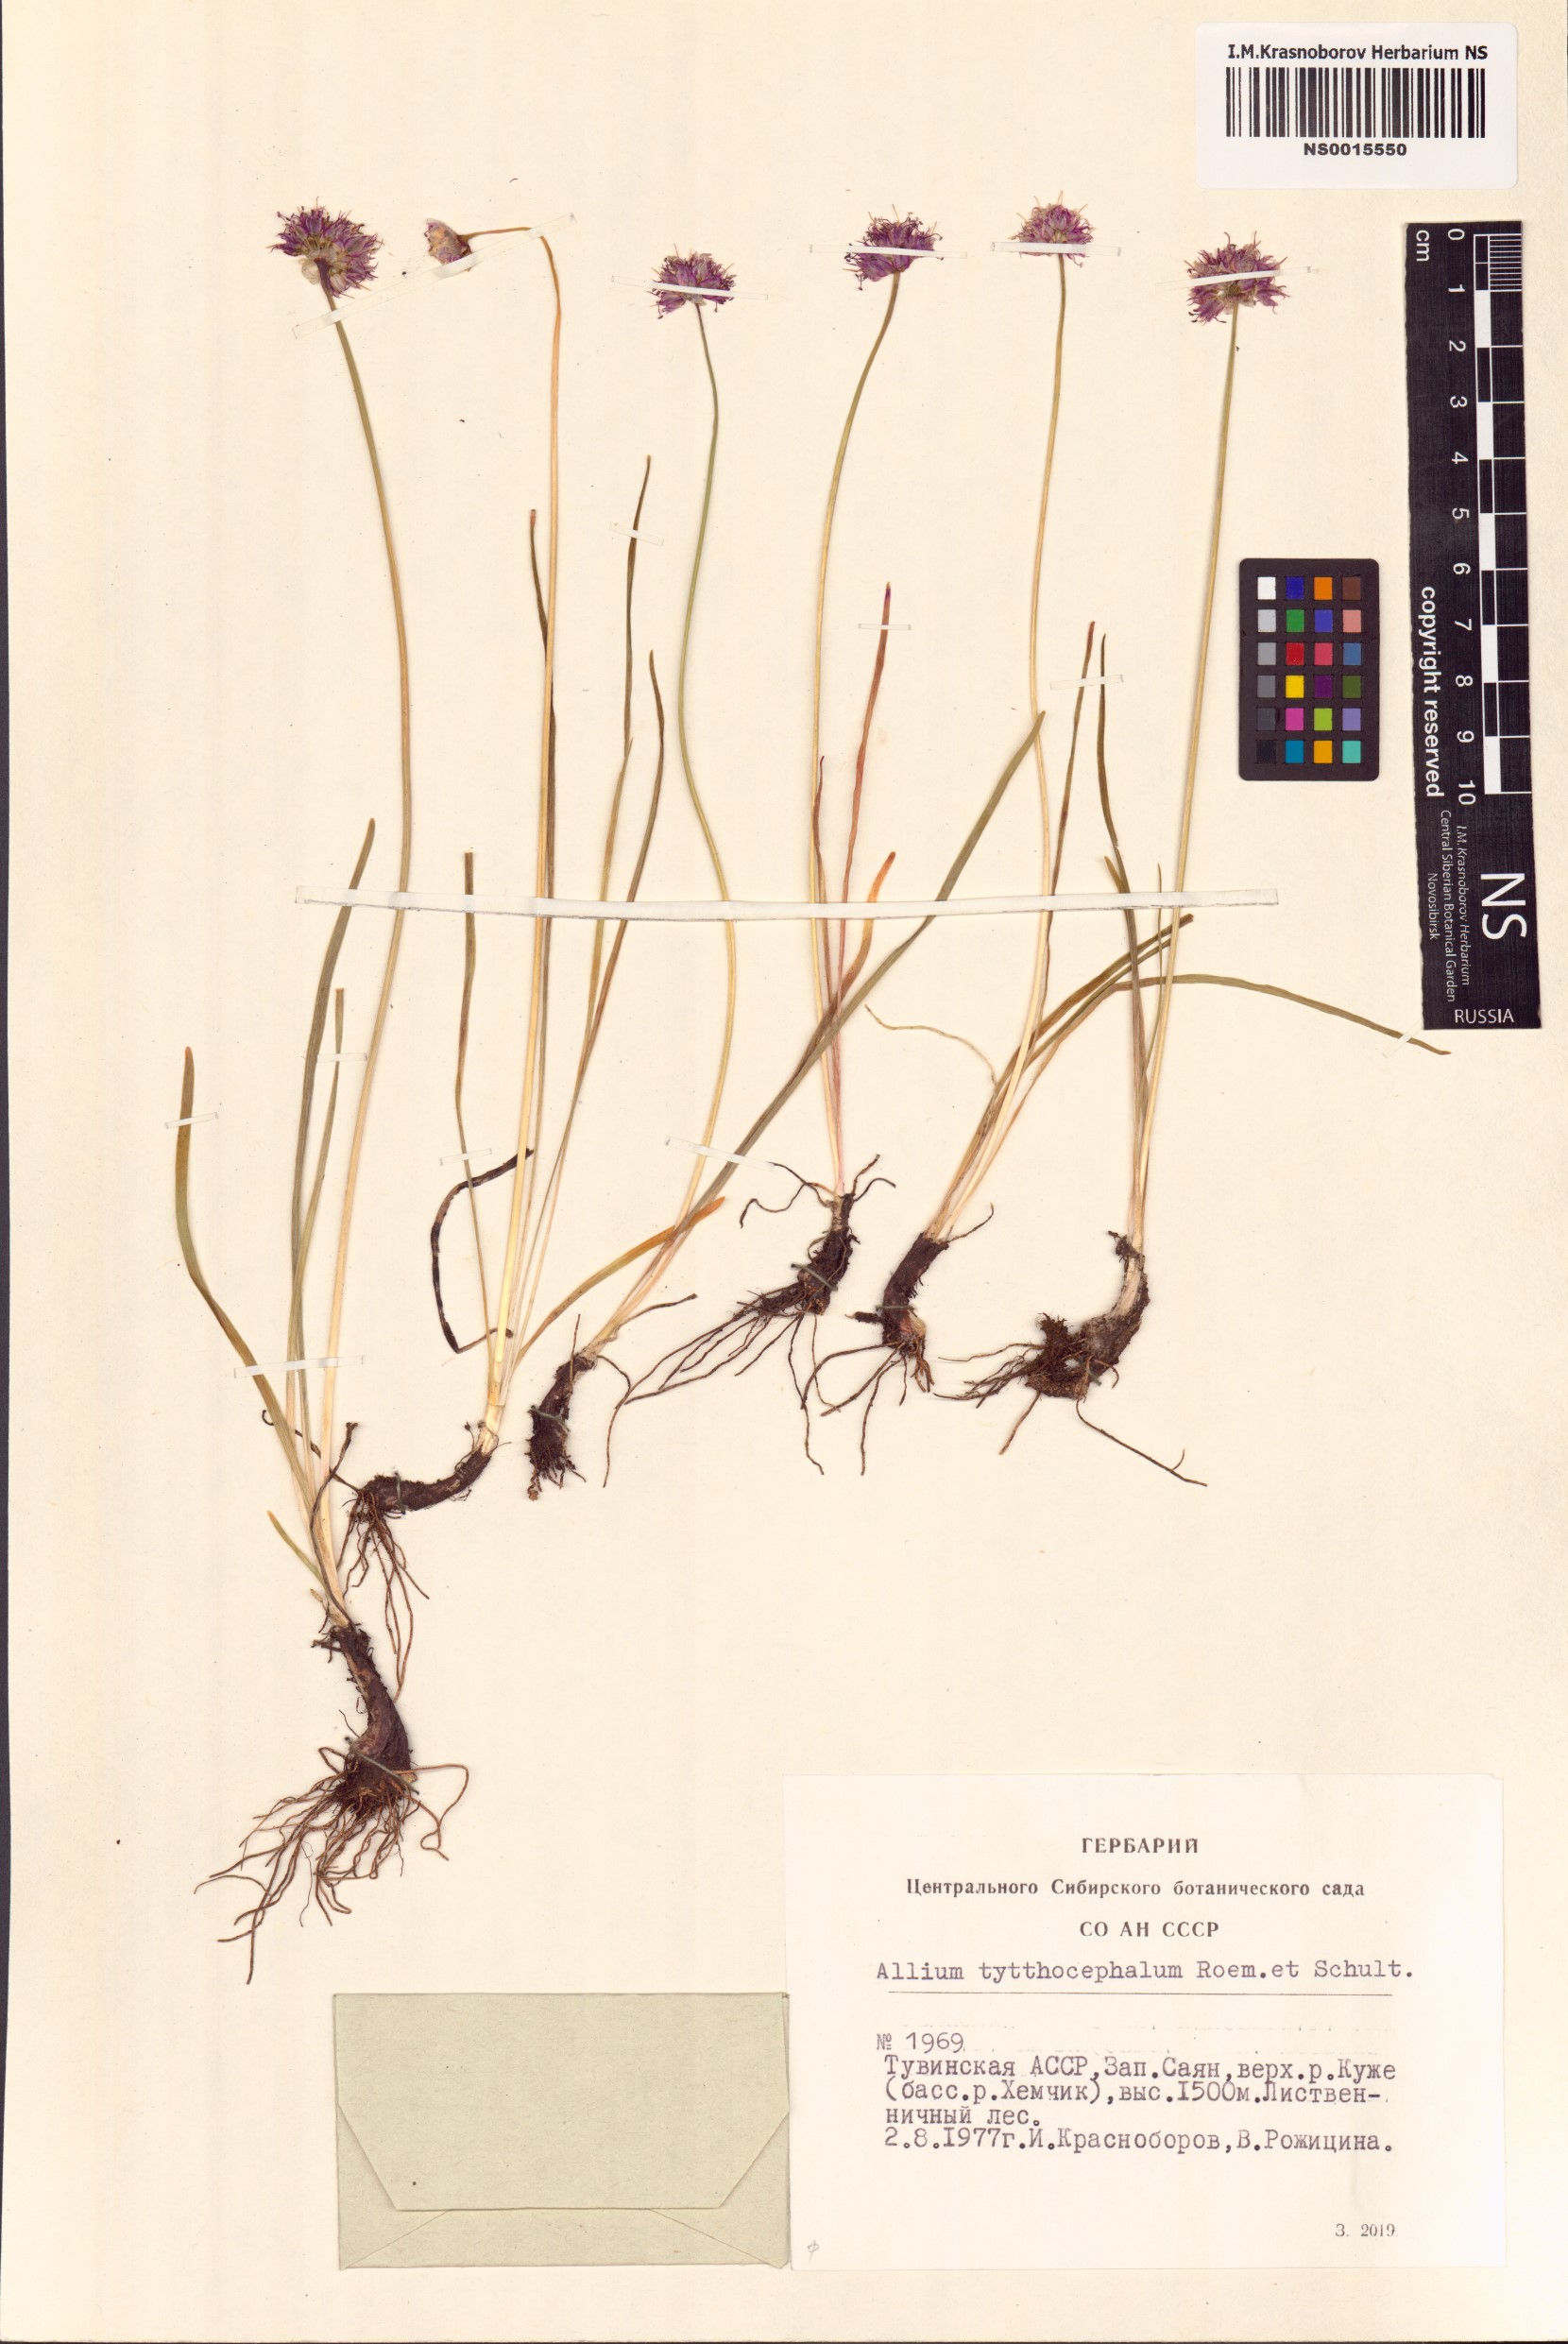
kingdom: Plantae
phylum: Tracheophyta
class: Liliopsida
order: Asparagales
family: Amaryllidaceae
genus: Allium
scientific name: Allium tytthocephalum
